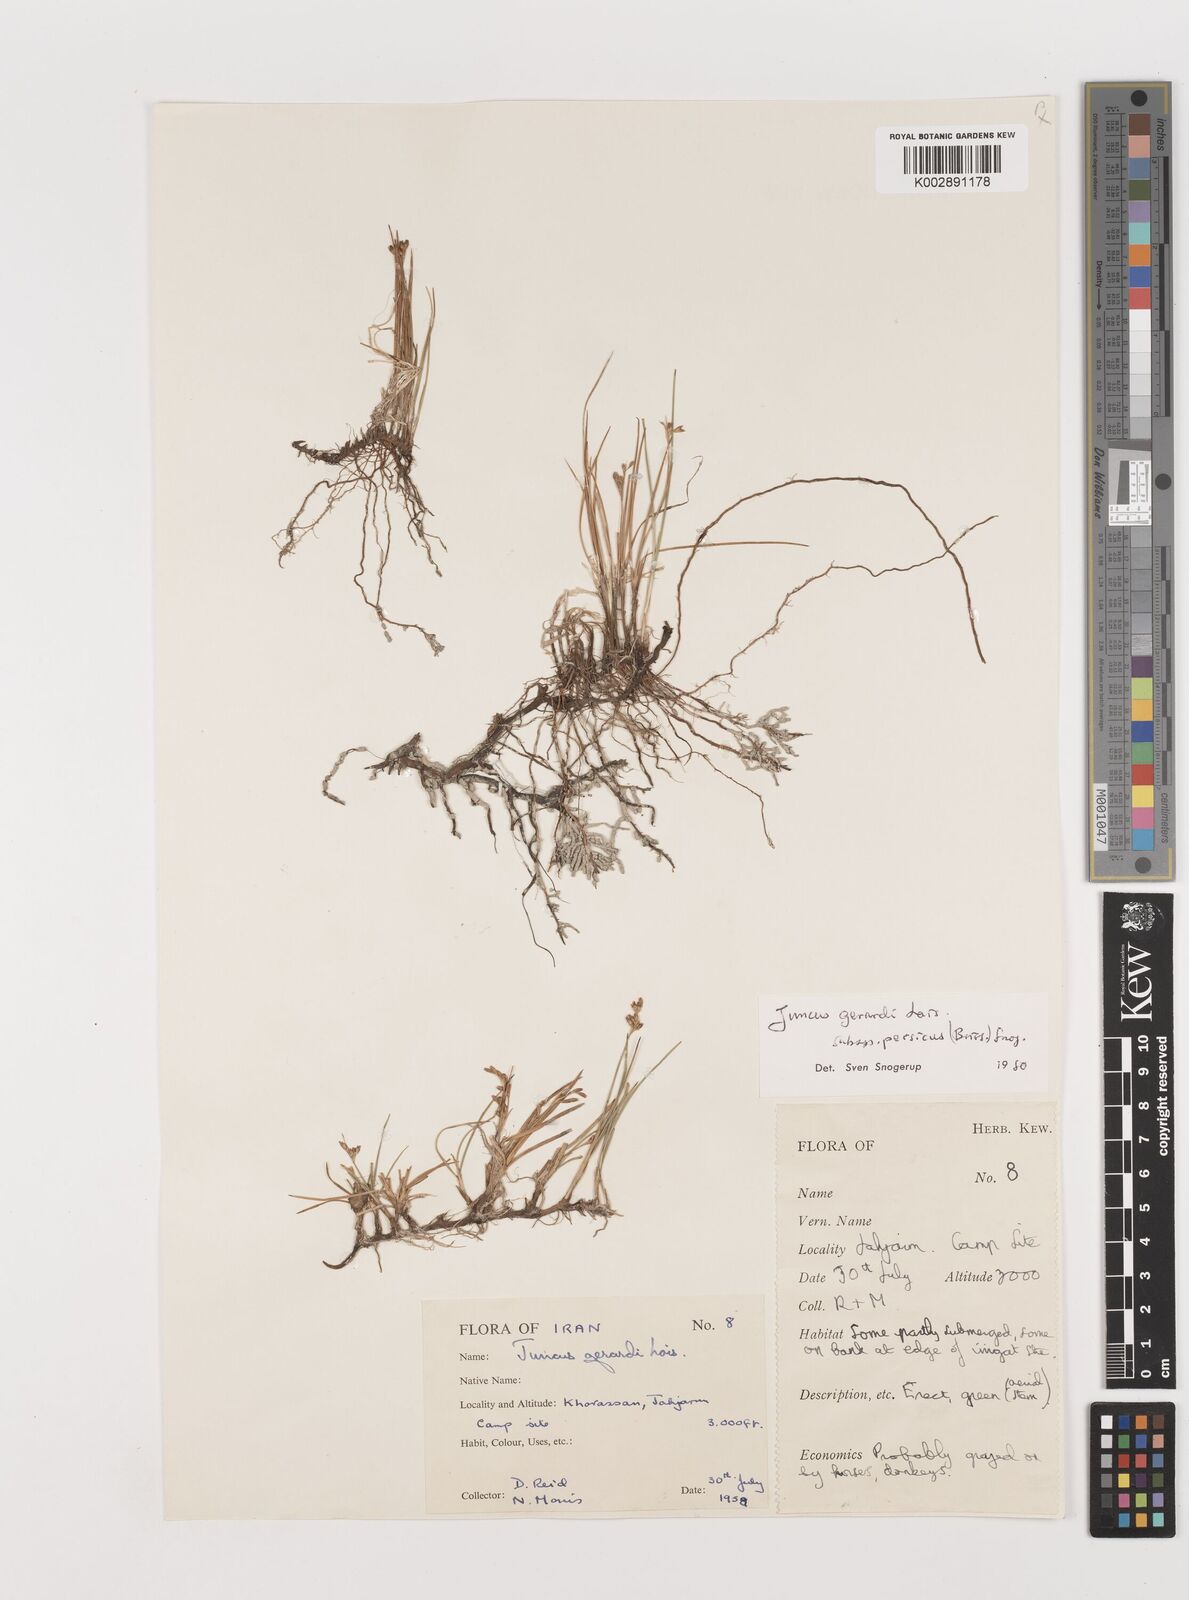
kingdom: Plantae
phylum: Tracheophyta
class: Liliopsida
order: Poales
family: Juncaceae
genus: Juncus
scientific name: Juncus persicus
